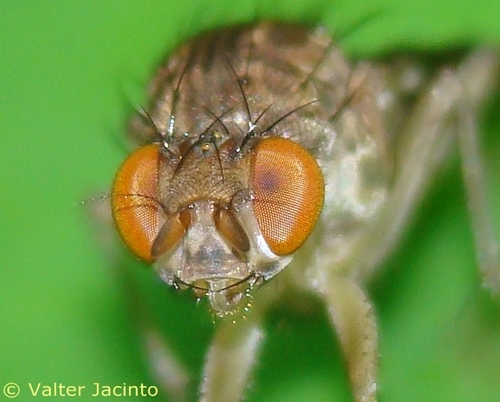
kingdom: Animalia
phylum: Arthropoda
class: Insecta
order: Diptera
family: Heleomyzidae
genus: Suillia
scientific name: Suillia variegata
